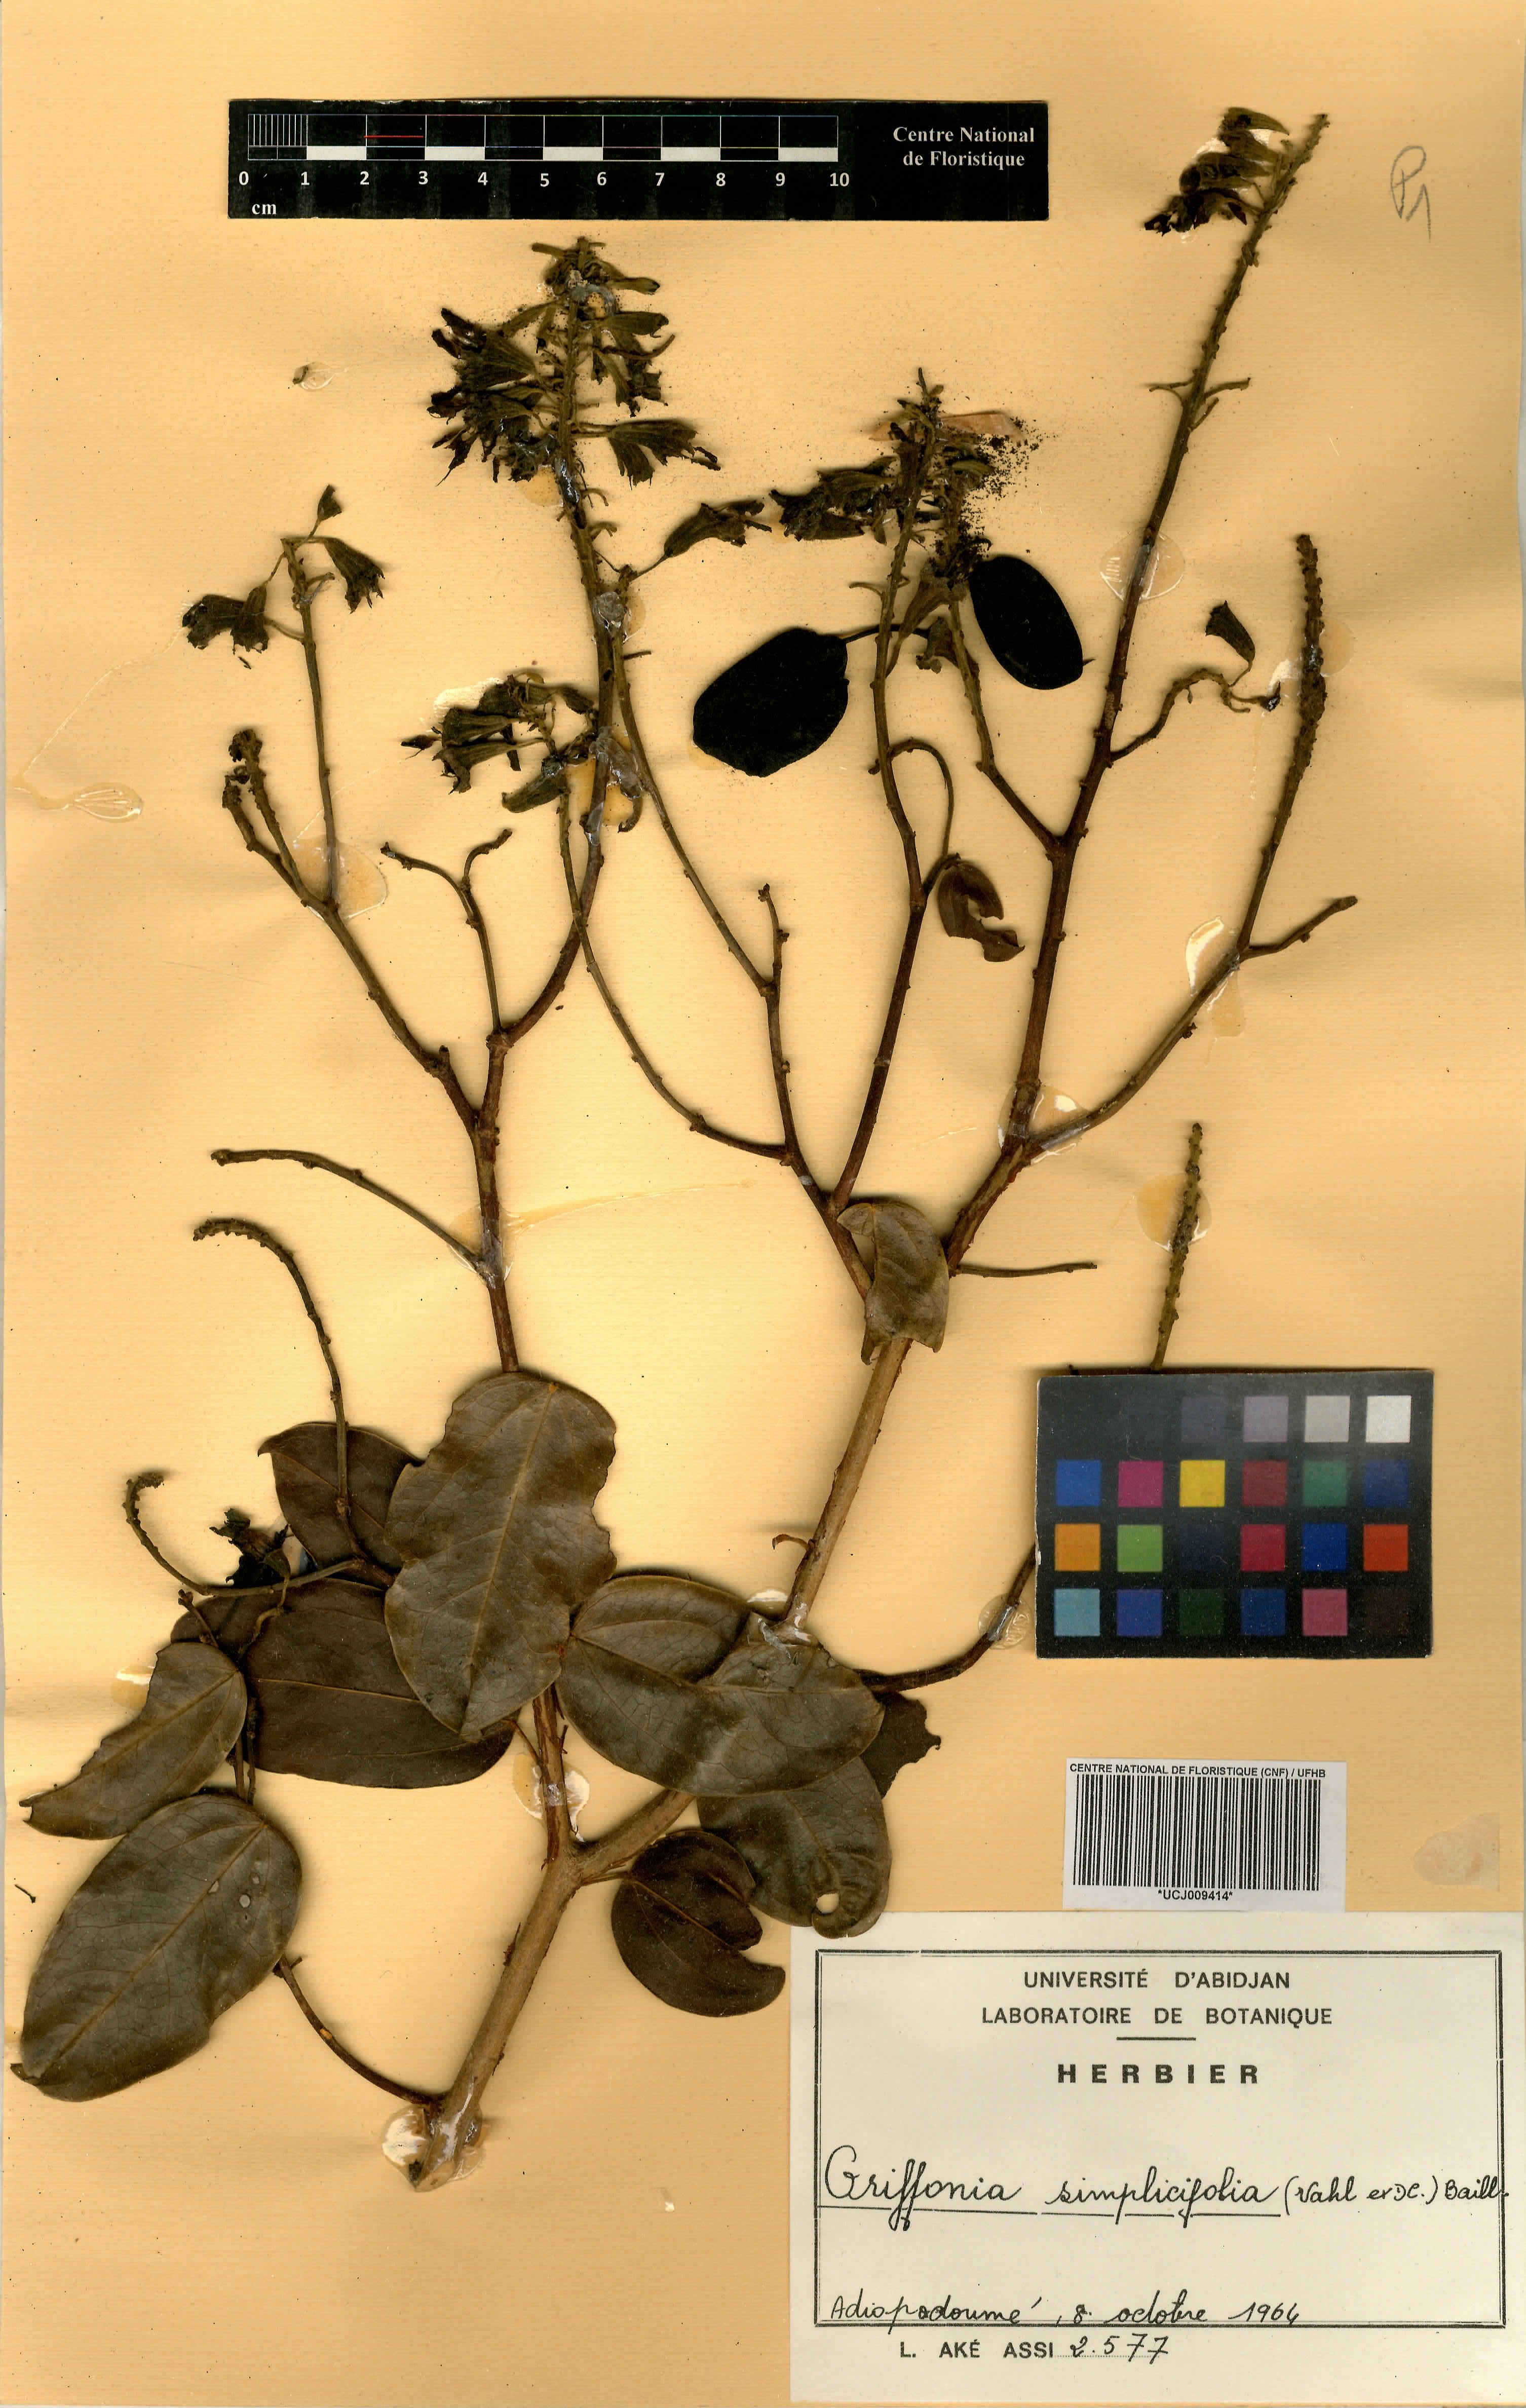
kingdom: Plantae
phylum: Tracheophyta
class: Magnoliopsida
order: Fabales
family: Fabaceae
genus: Griffonia
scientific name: Griffonia simplicifolia
